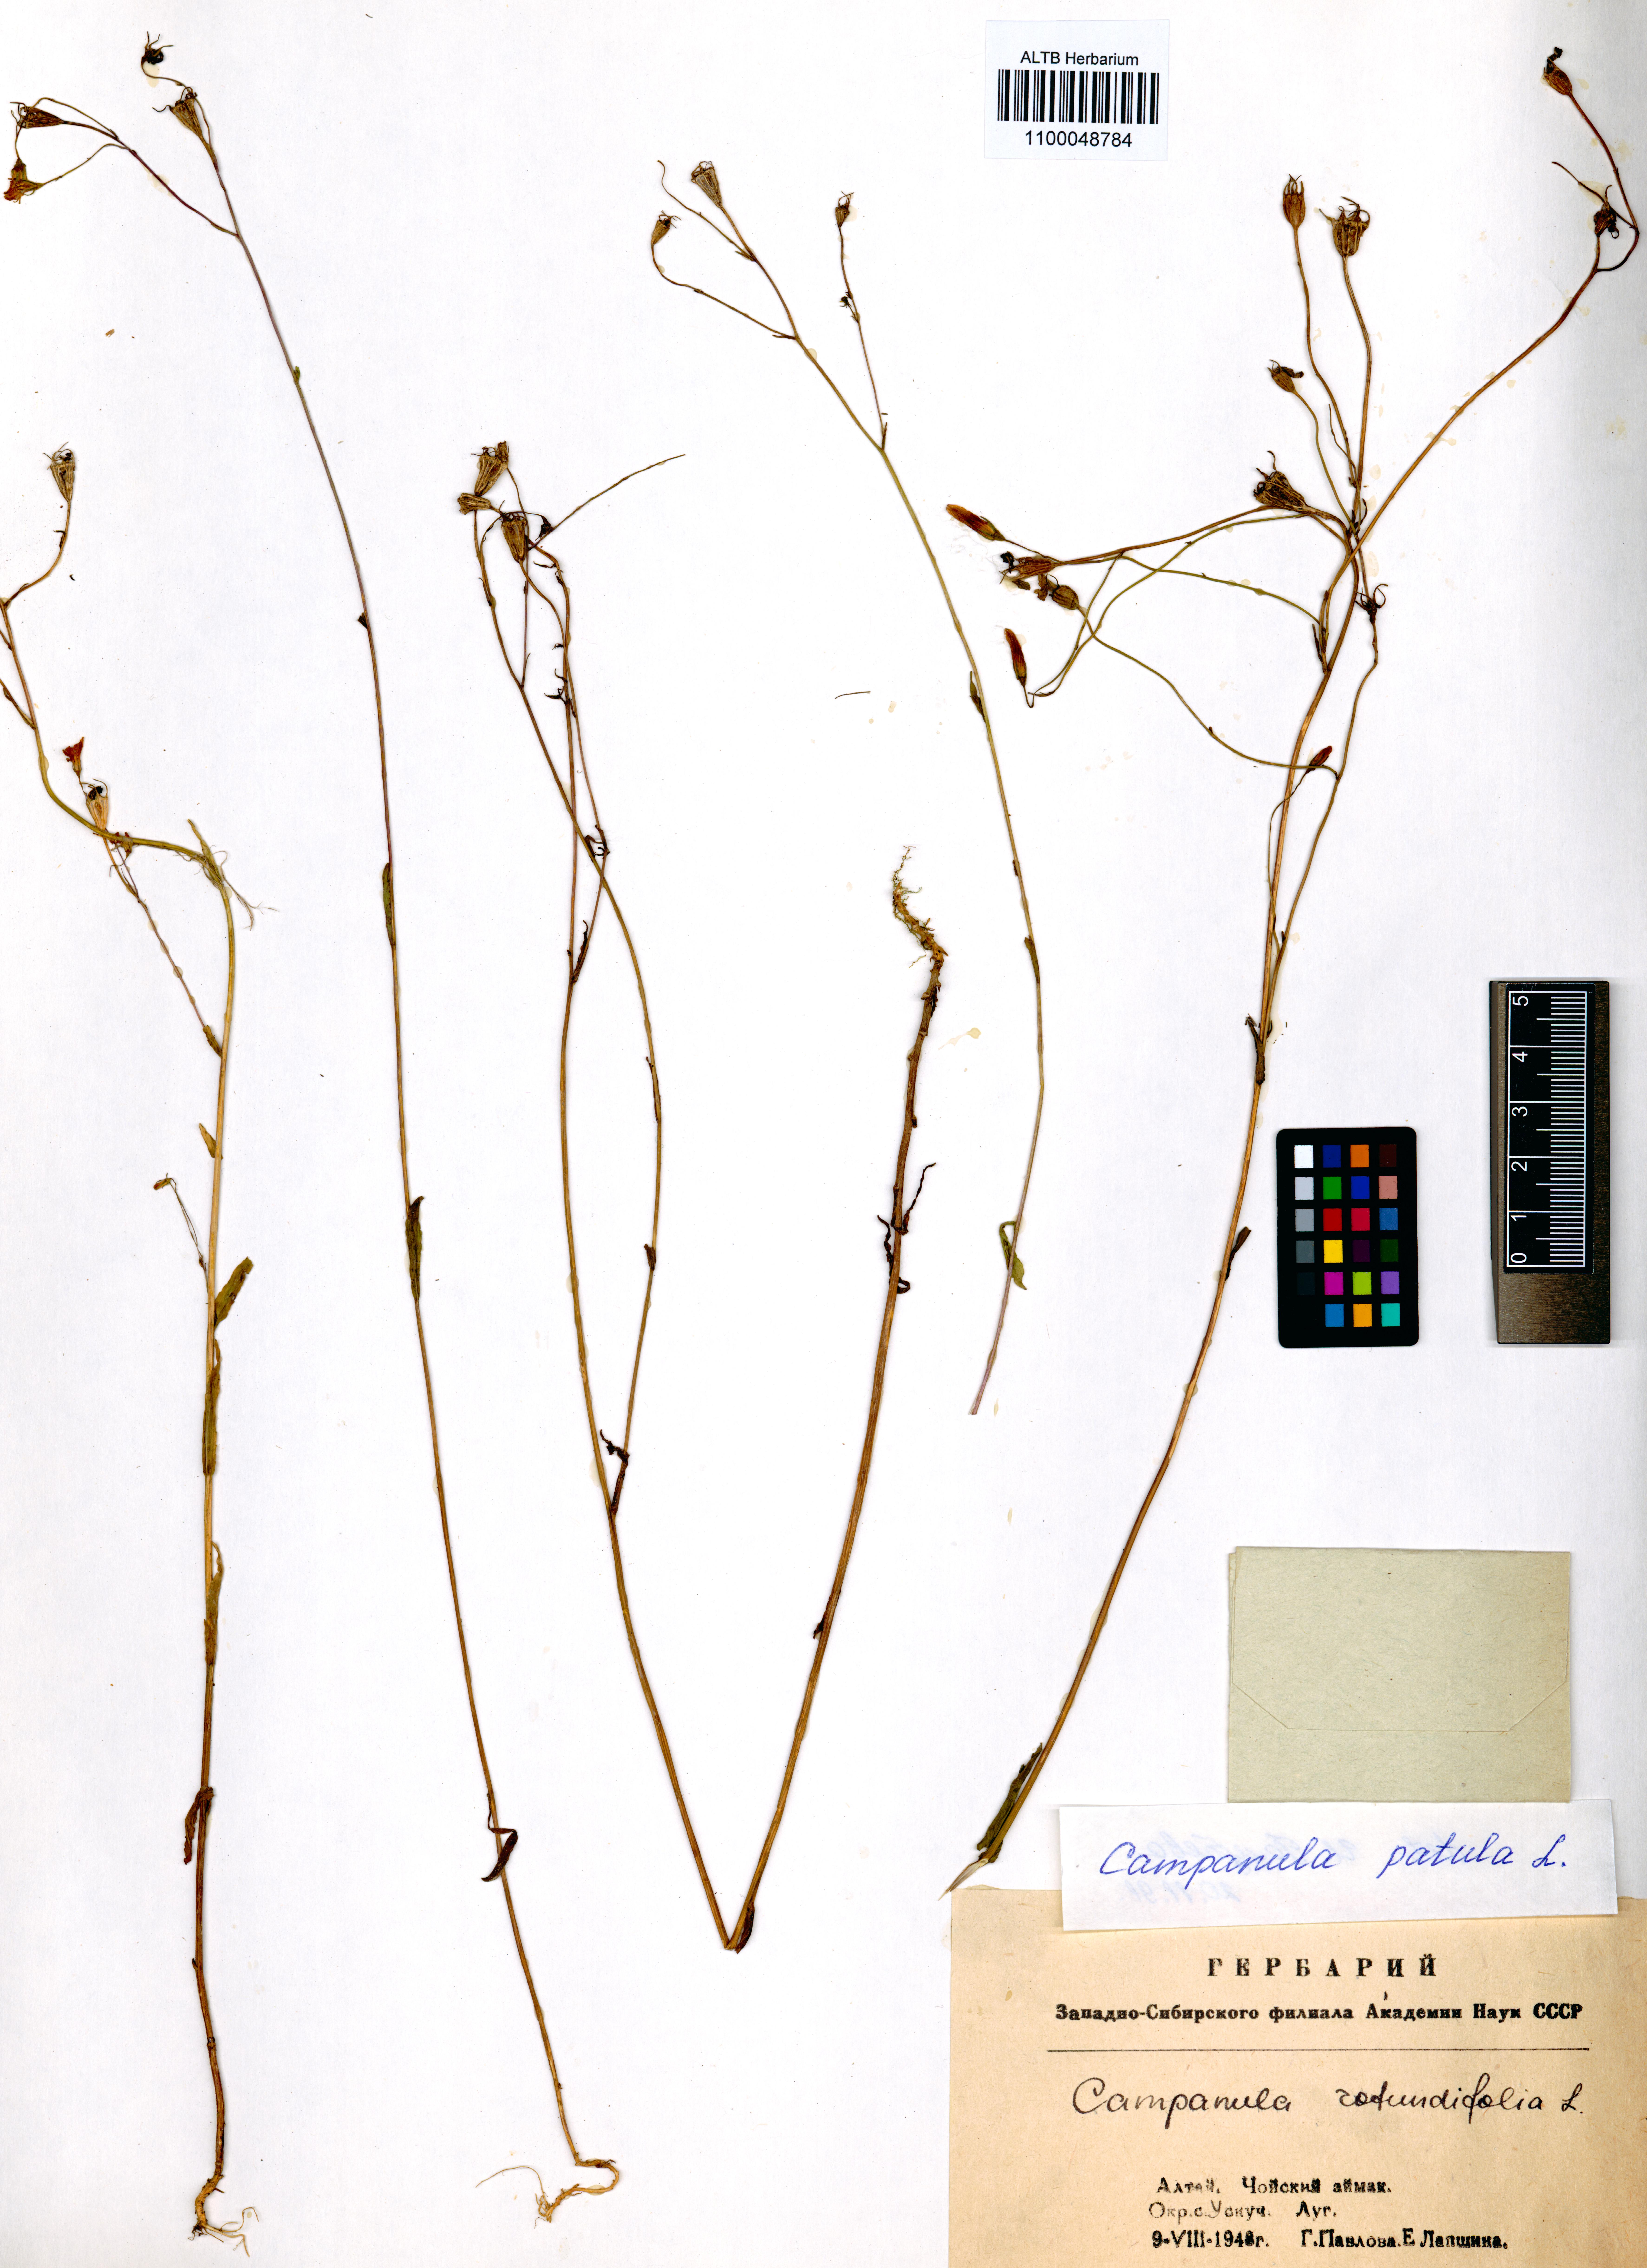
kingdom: Plantae
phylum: Tracheophyta
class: Magnoliopsida
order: Asterales
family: Campanulaceae
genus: Campanula
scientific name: Campanula patula
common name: Spreading bellflower
